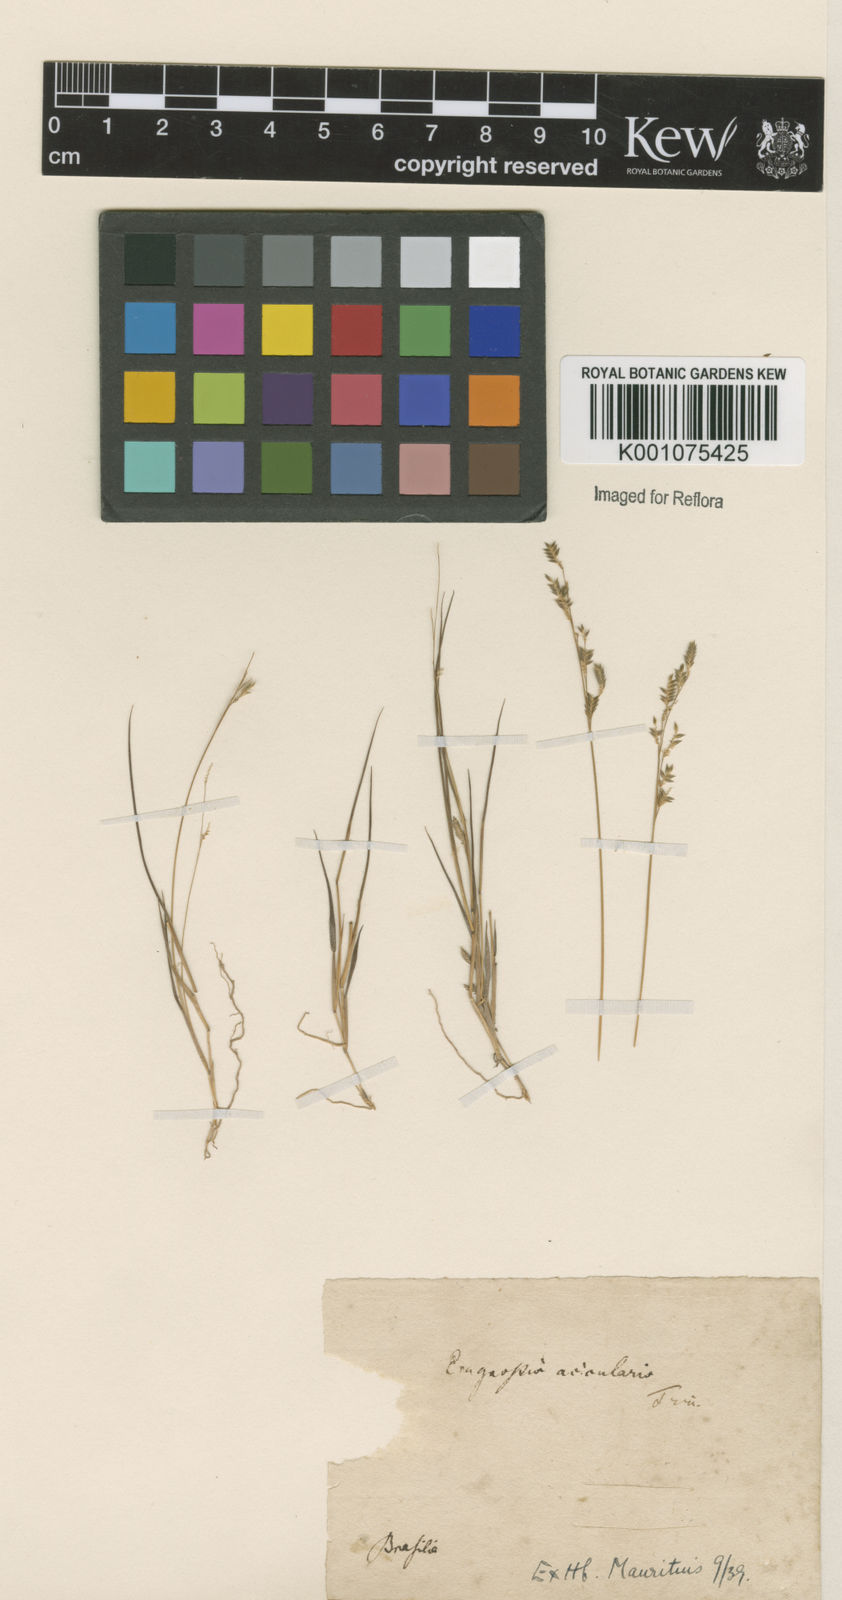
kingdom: Plantae
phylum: Tracheophyta
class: Liliopsida
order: Poales
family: Poaceae
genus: Eragrostis
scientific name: Eragrostis rufescens
